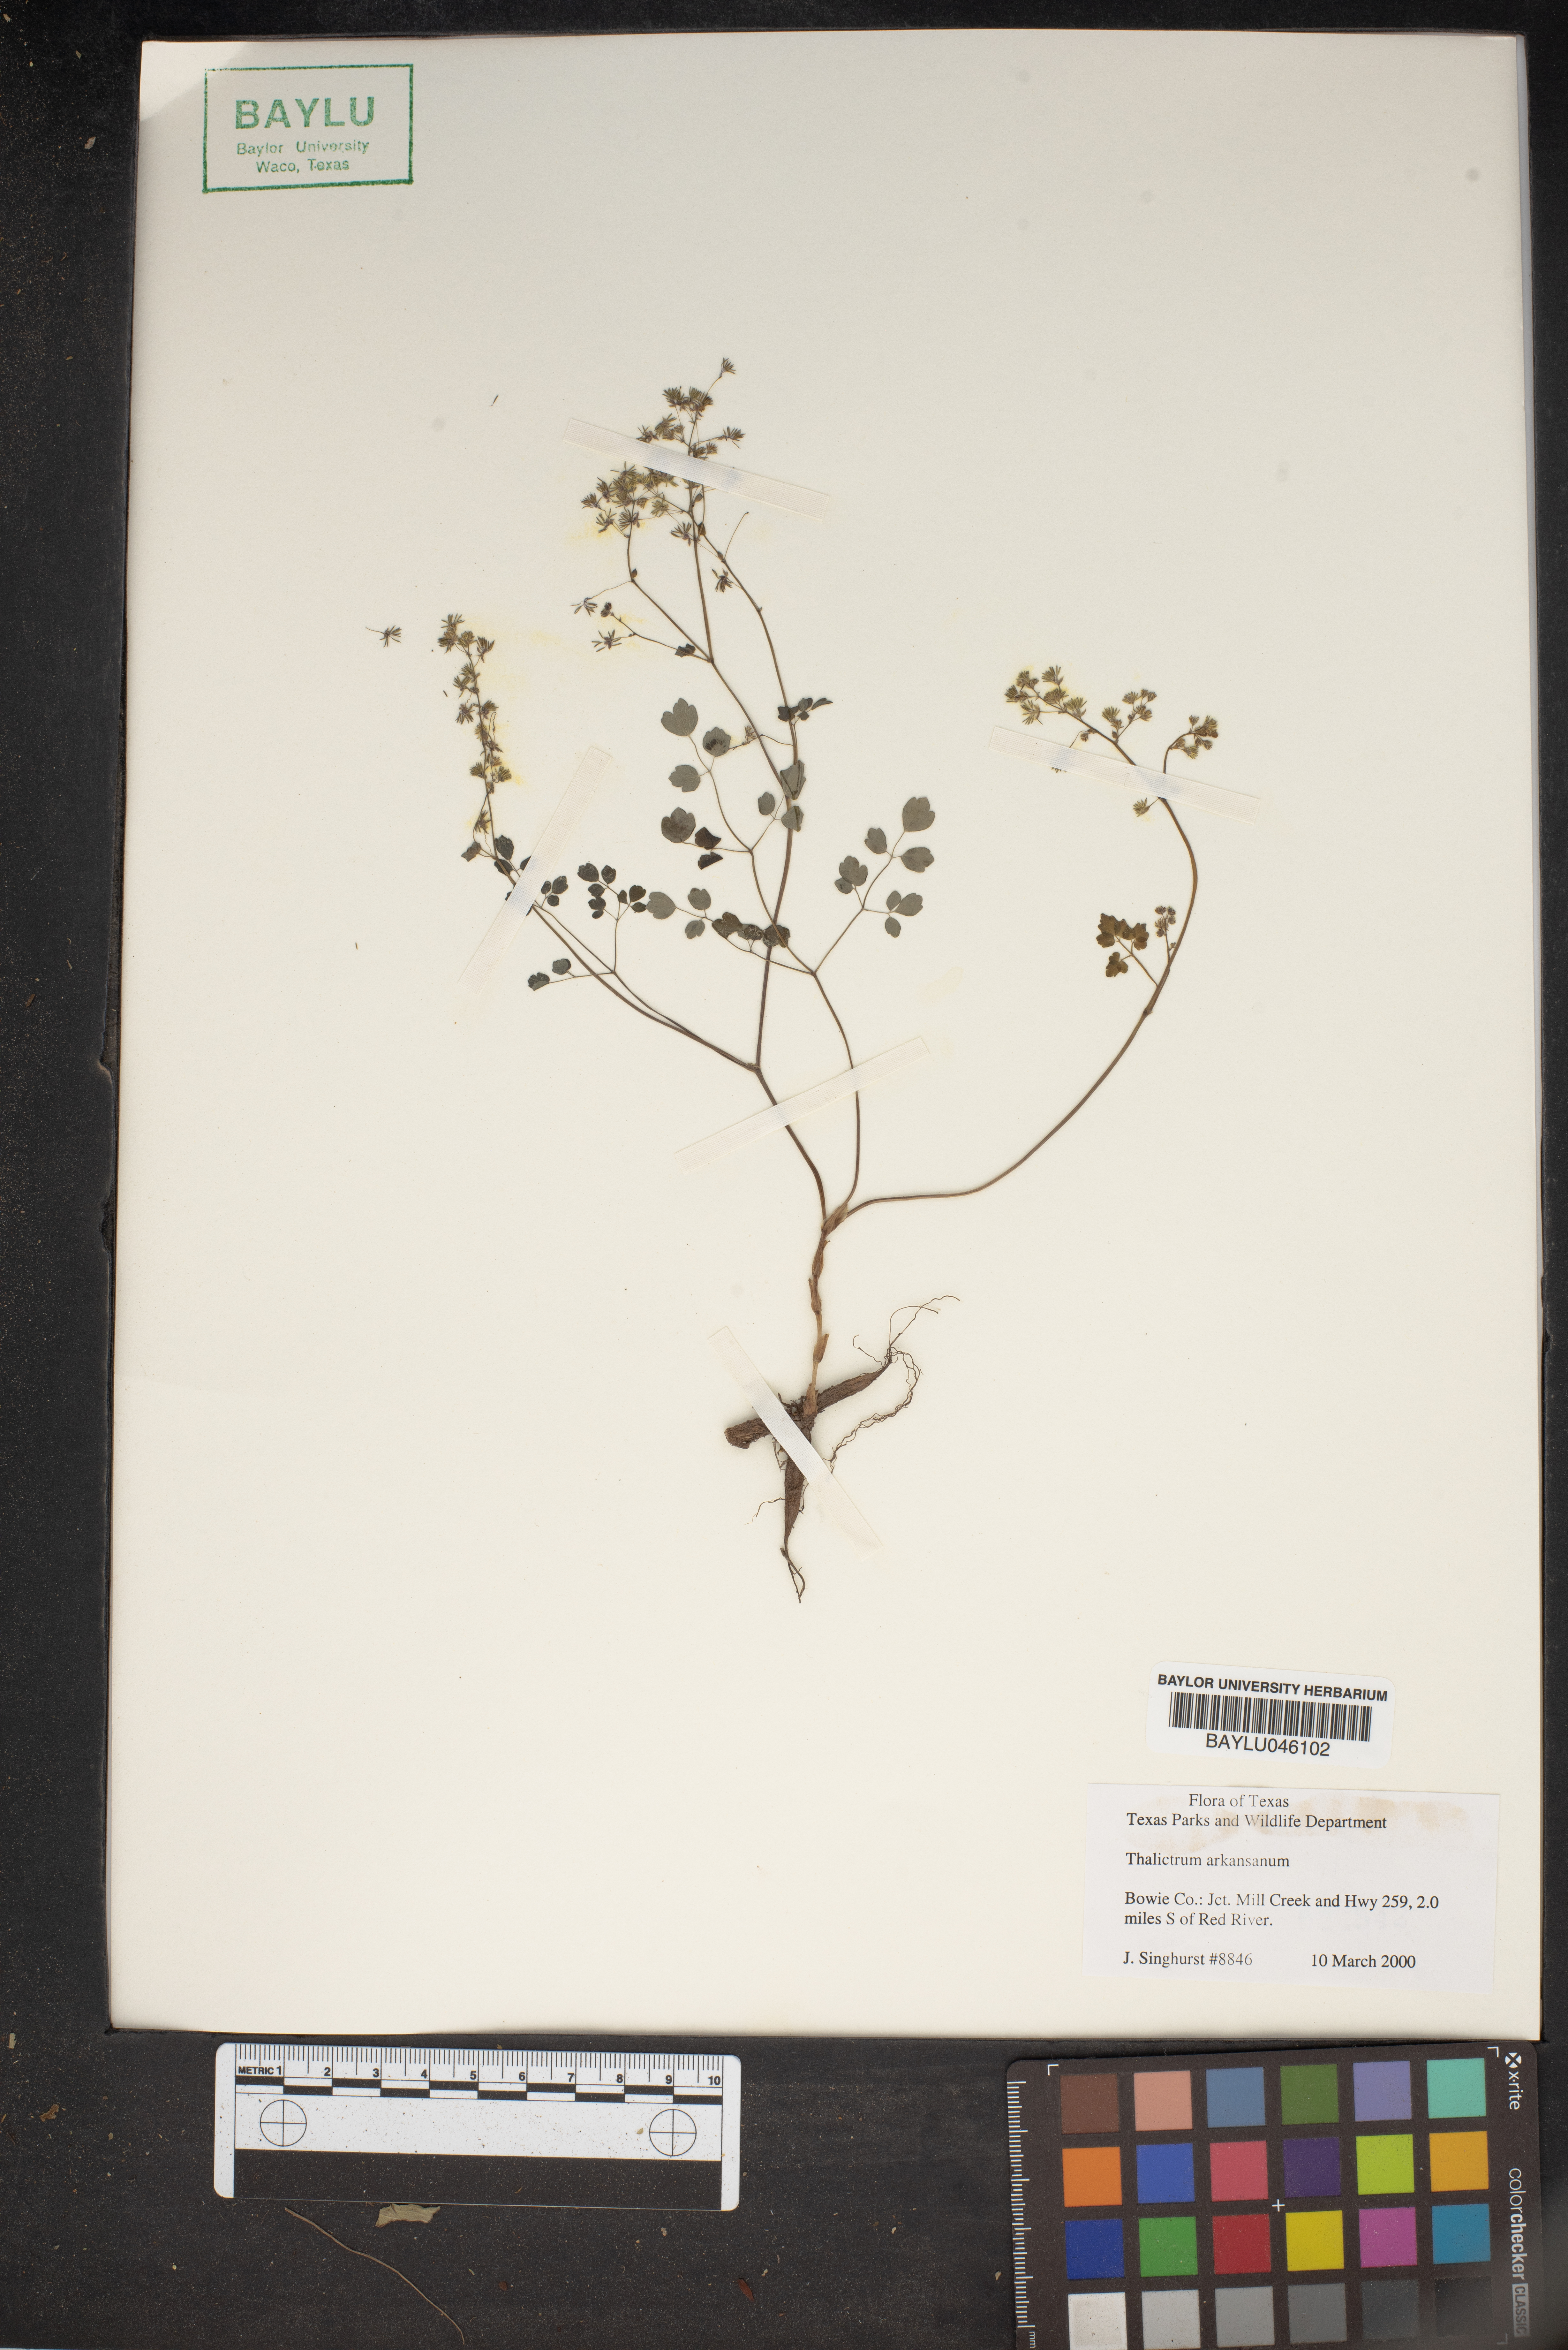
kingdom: Plantae
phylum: Tracheophyta
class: Magnoliopsida
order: Ranunculales
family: Ranunculaceae
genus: Thalictrum
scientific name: Thalictrum arkansanum
